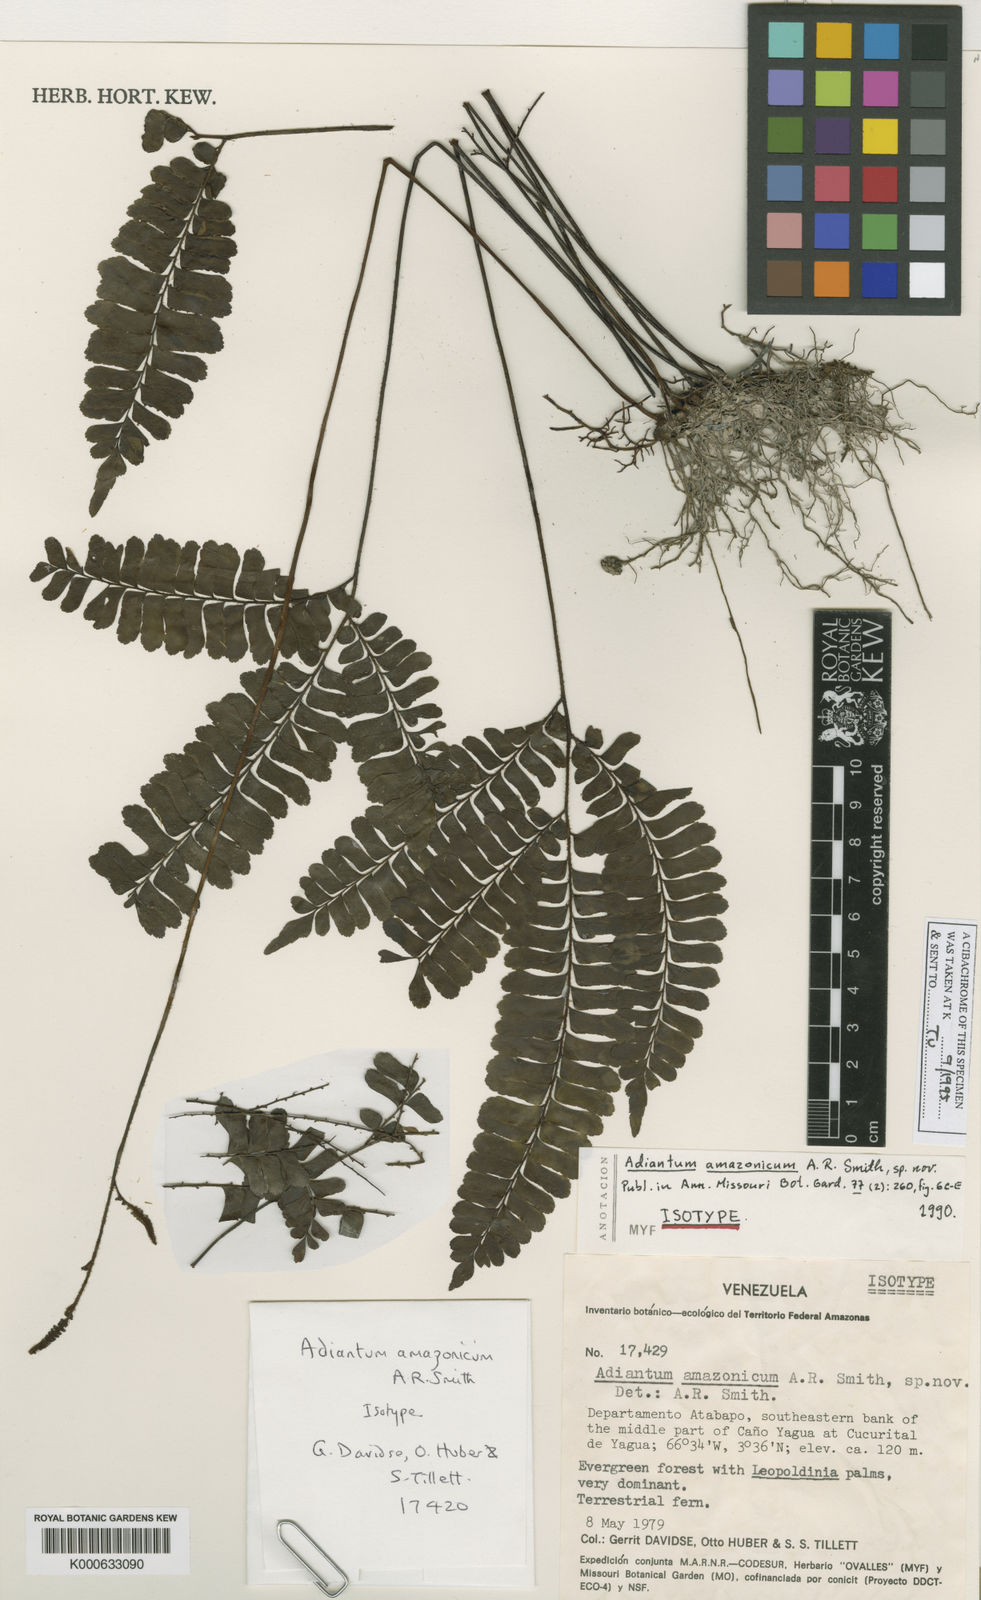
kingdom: Plantae
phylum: Tracheophyta
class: Polypodiopsida
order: Polypodiales
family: Pteridaceae
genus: Adiantum
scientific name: Adiantum paraense
